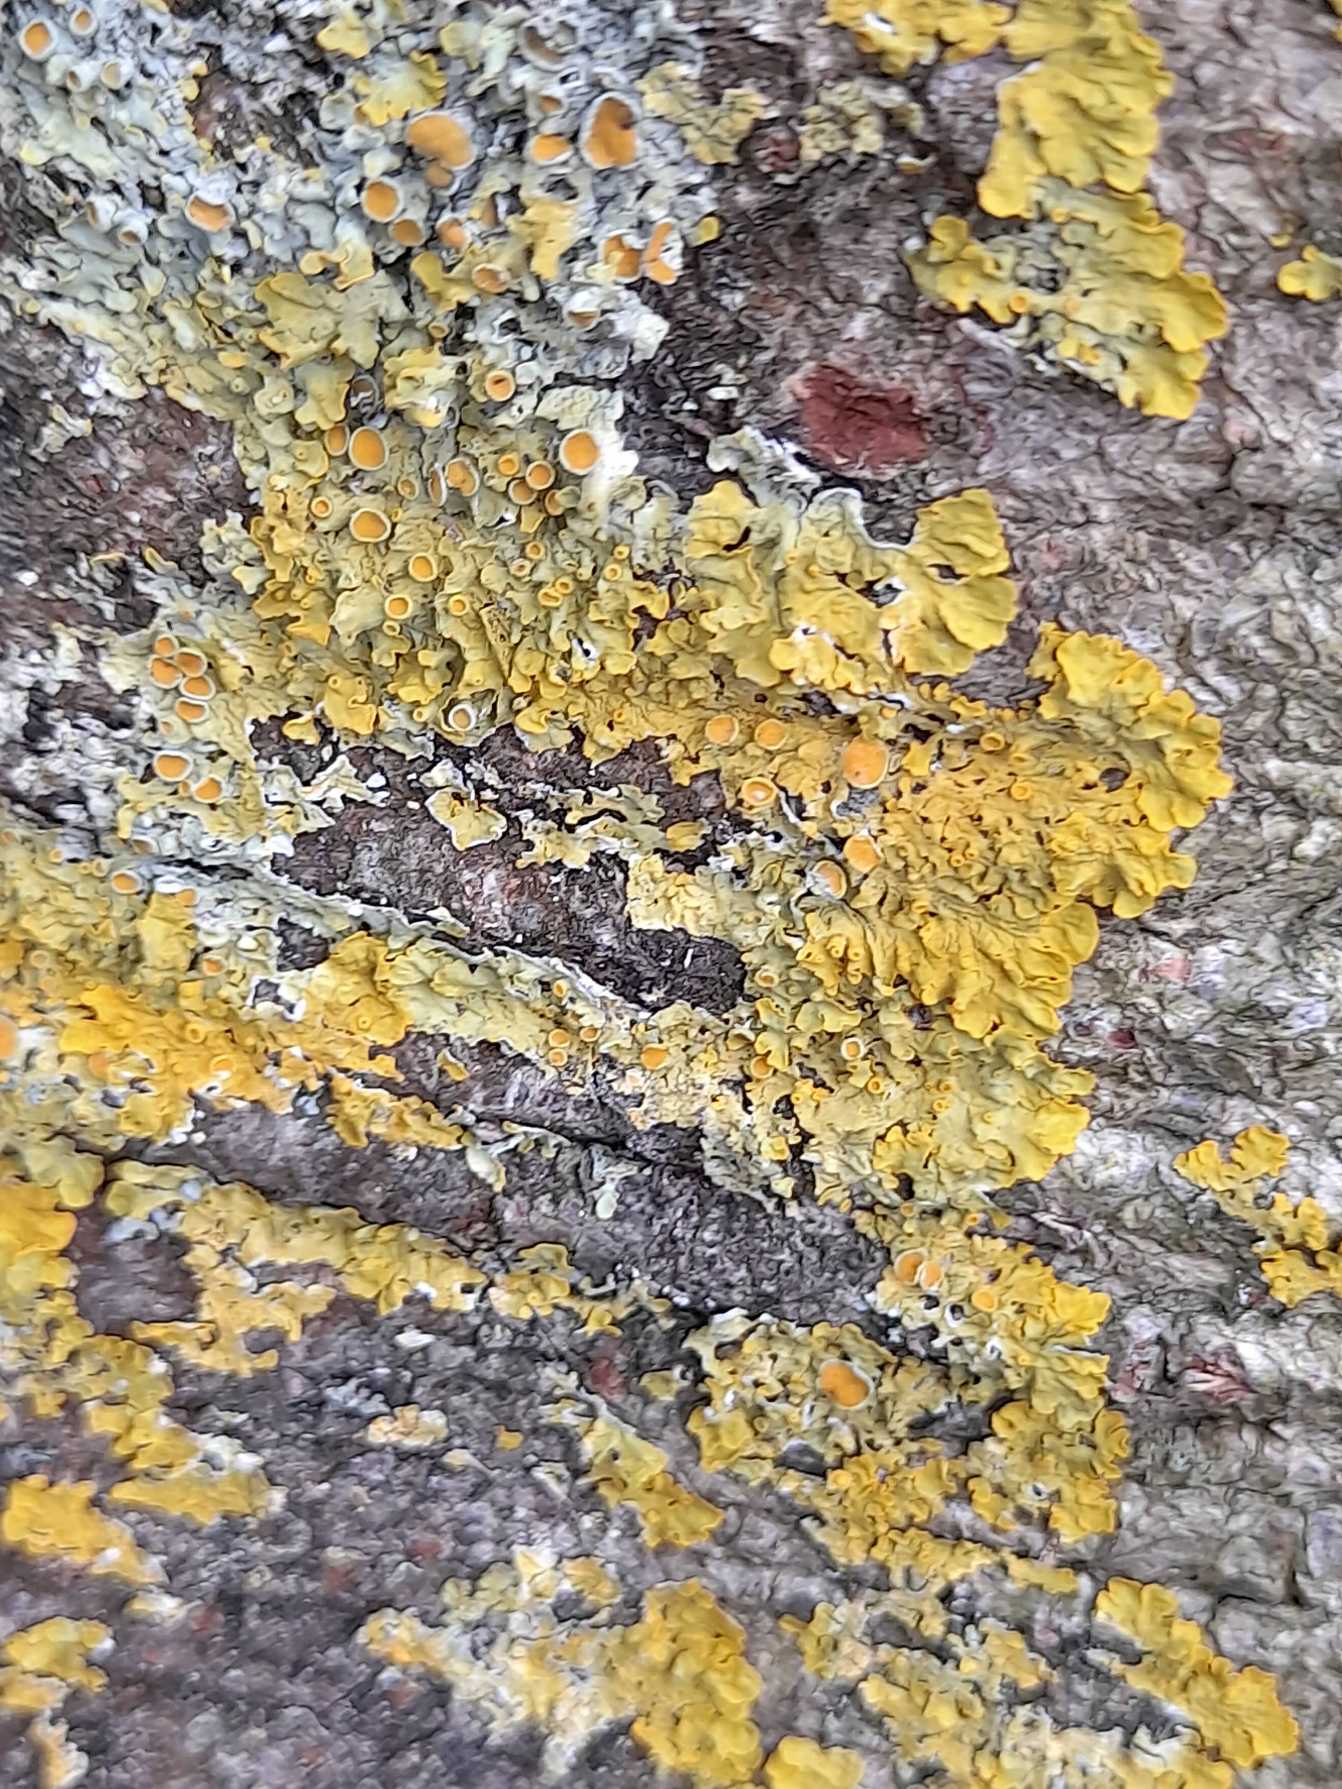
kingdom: Fungi
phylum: Ascomycota
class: Lecanoromycetes
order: Teloschistales
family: Teloschistaceae
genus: Xanthoria
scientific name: Xanthoria parietina
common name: Almindelig væggelav
